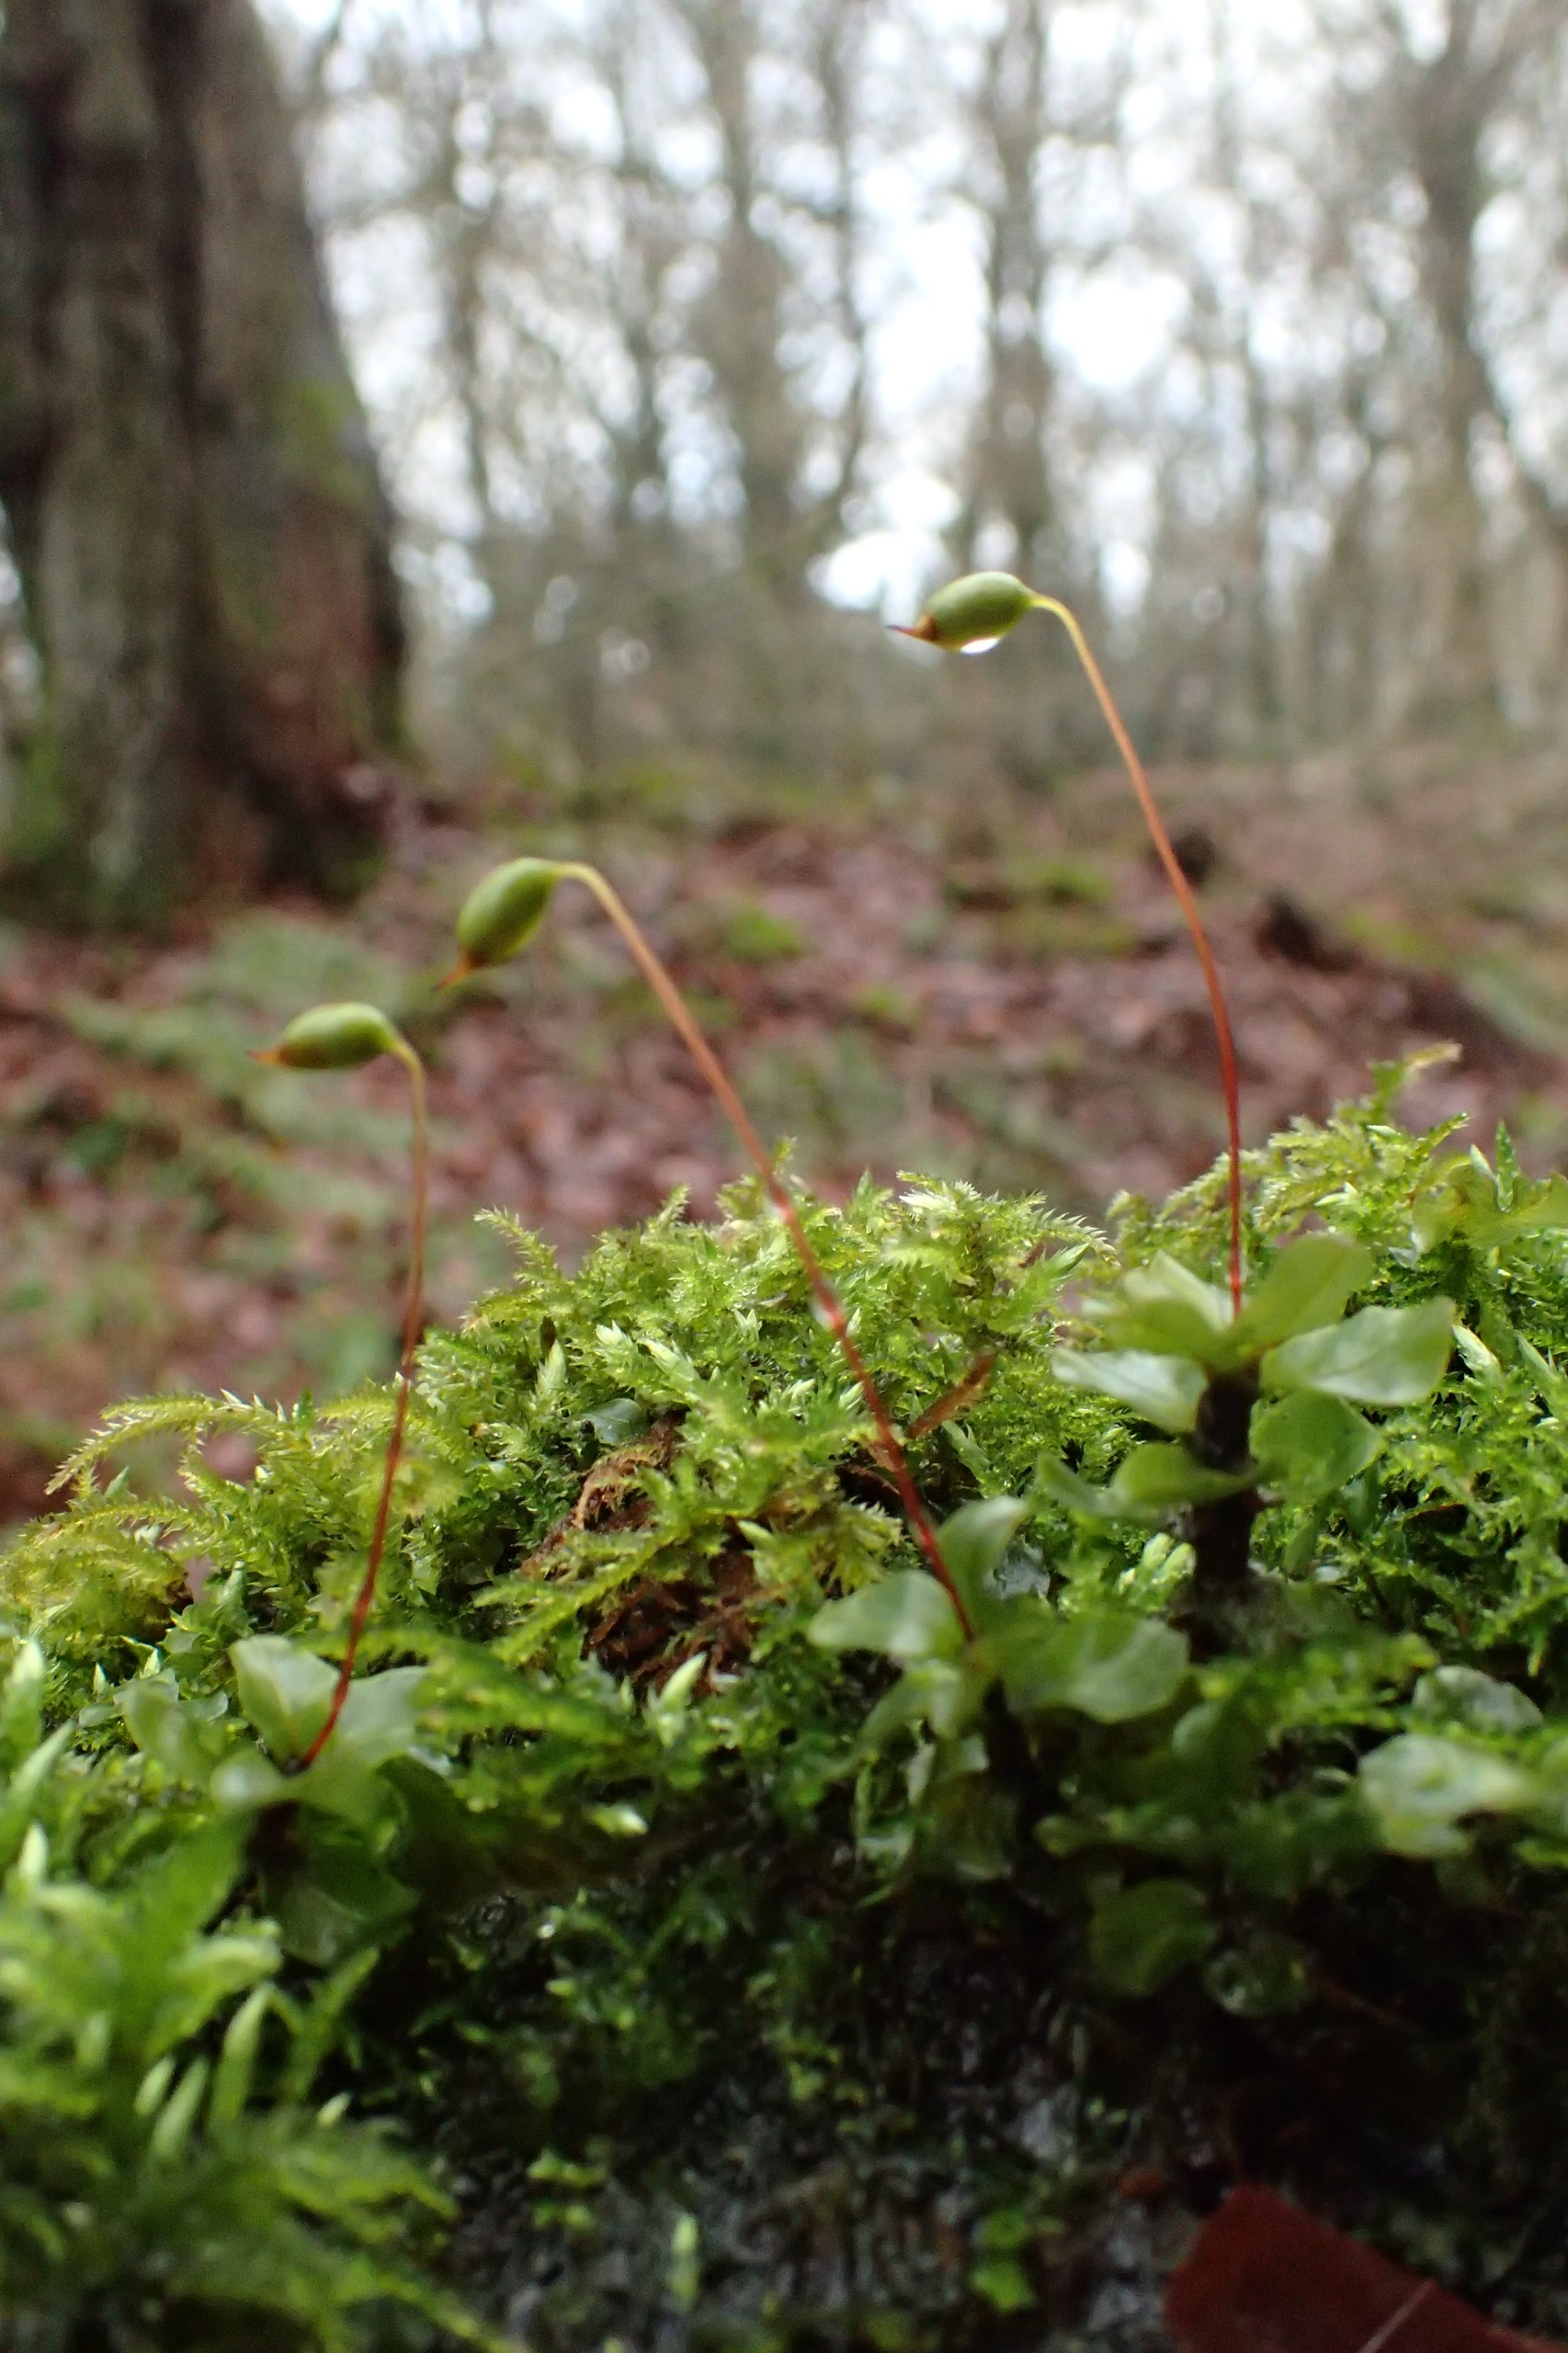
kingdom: Plantae
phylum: Bryophyta
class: Bryopsida
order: Bryales
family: Mniaceae
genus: Rhizomnium
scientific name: Rhizomnium punctatum
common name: Almindelig bredblad
